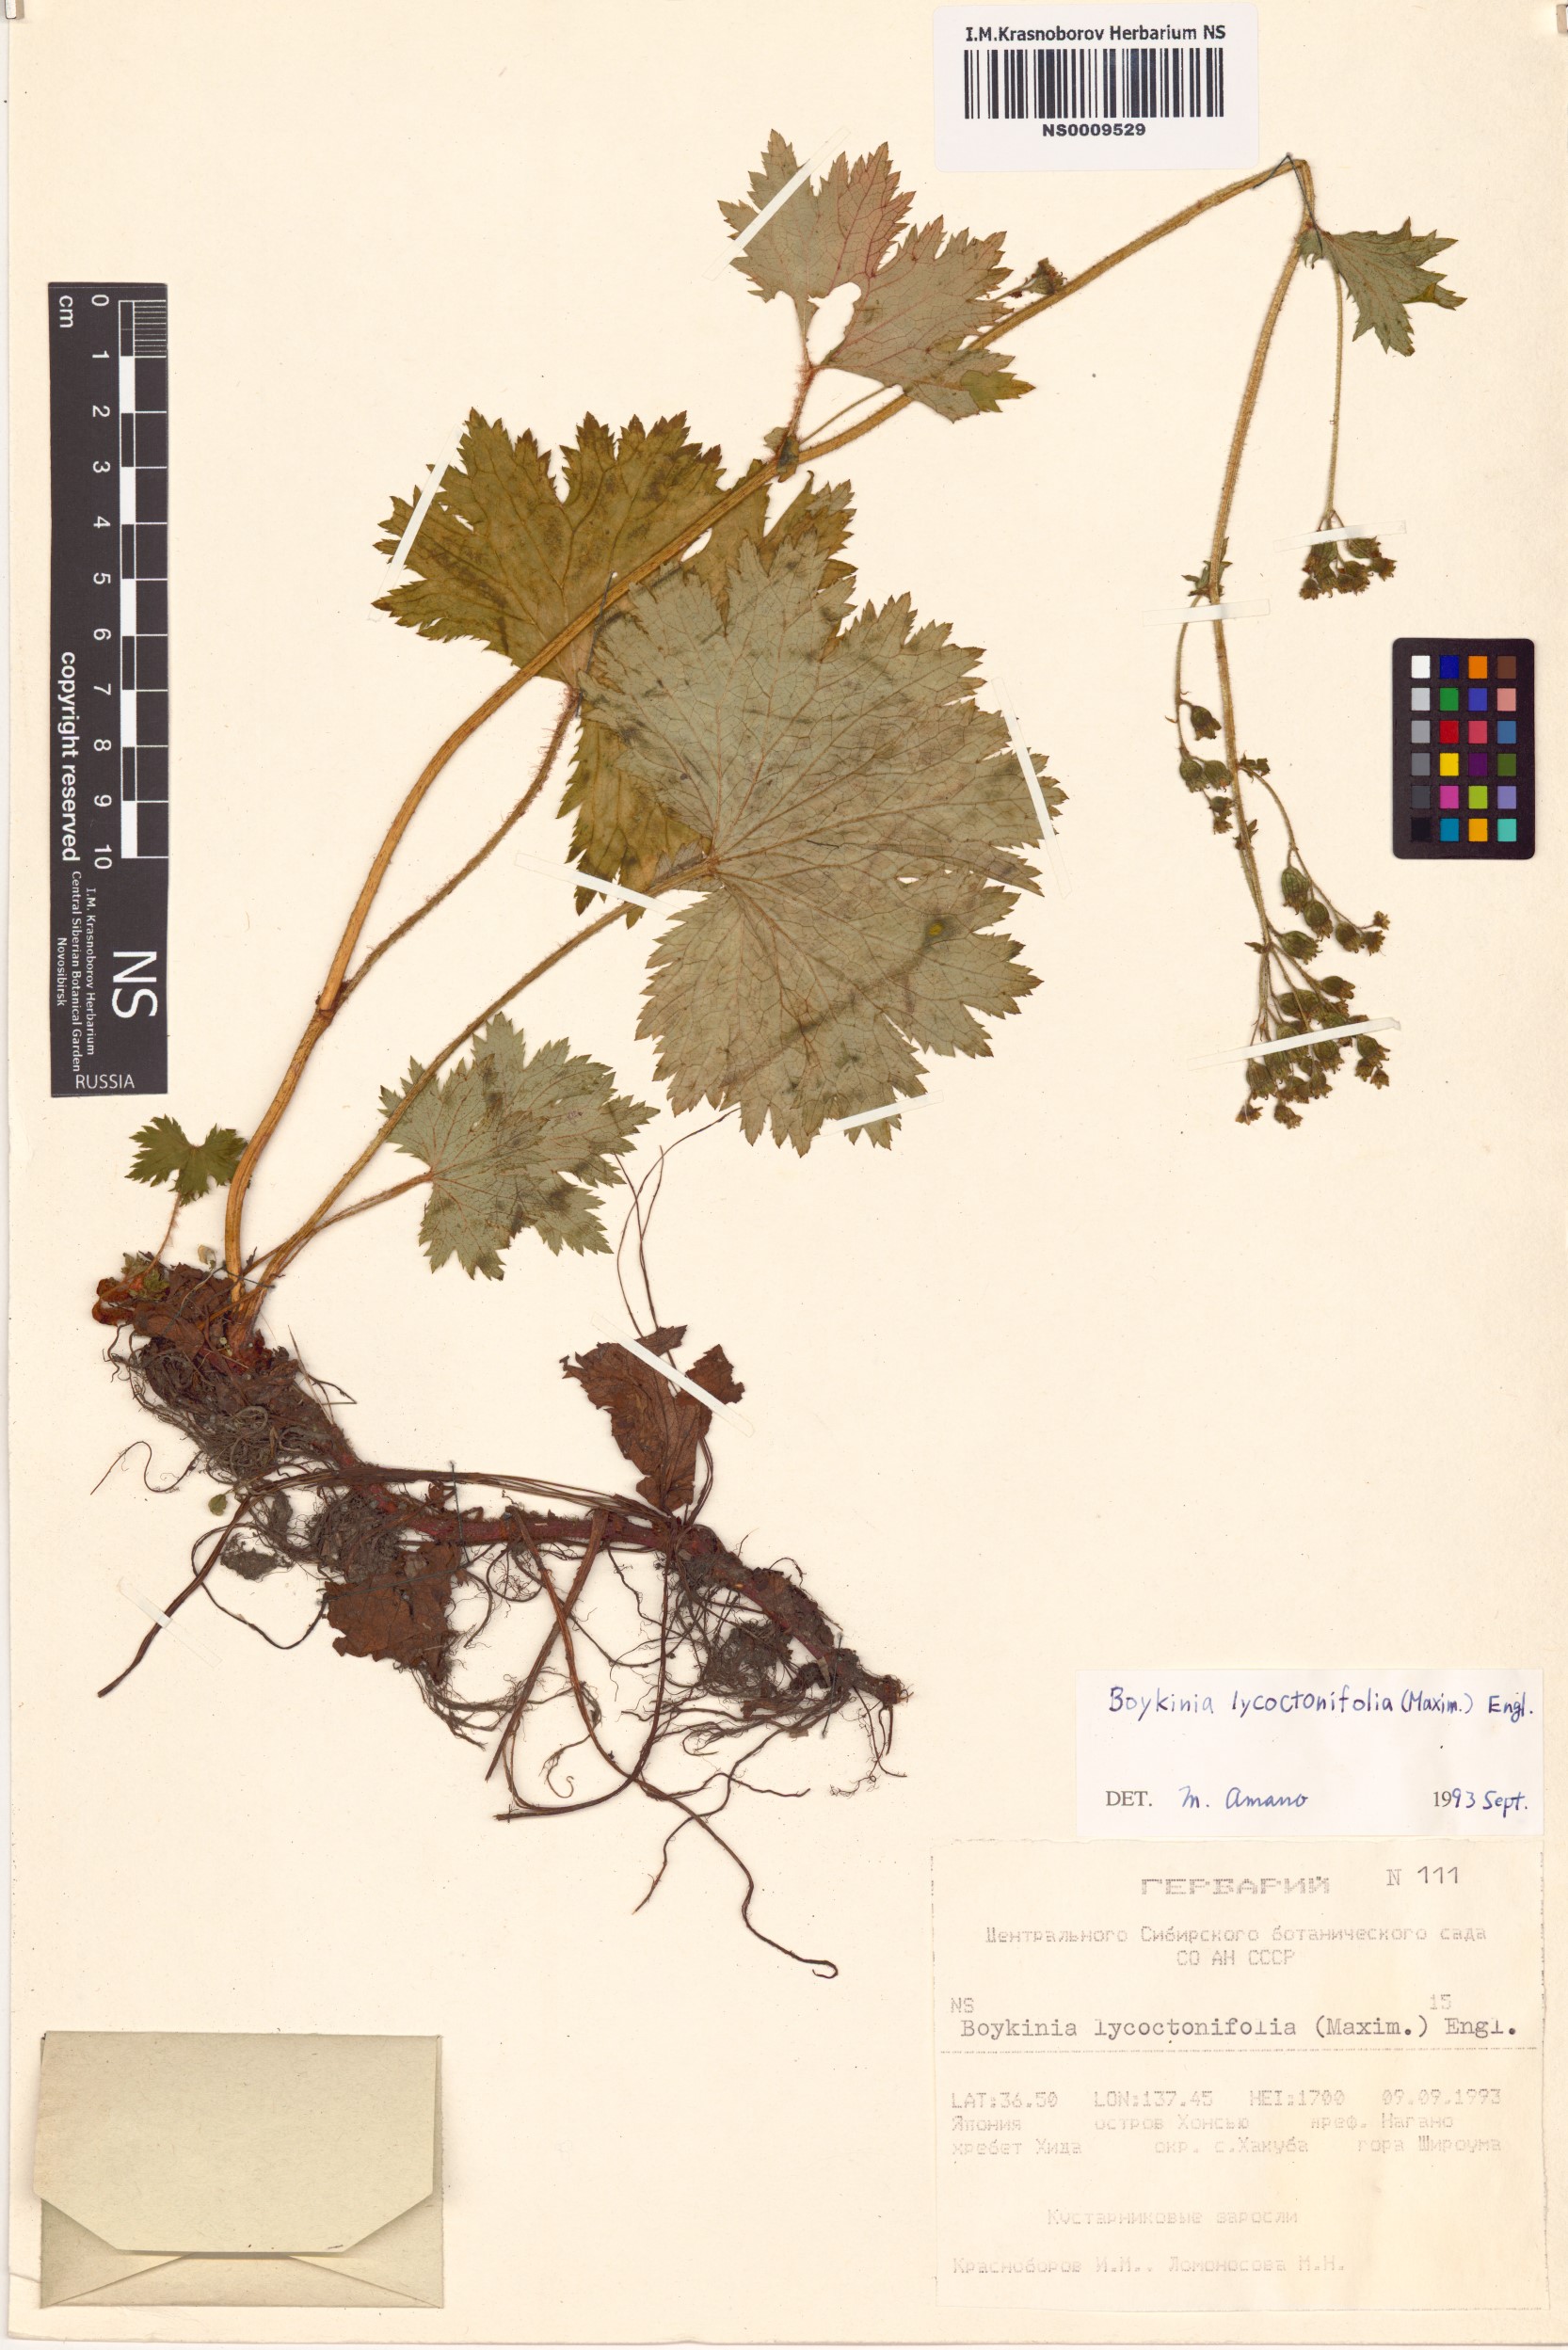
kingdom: Plantae
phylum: Tracheophyta
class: Magnoliopsida
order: Saxifragales
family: Saxifragaceae
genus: Boykinia
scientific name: Boykinia lycoctonifolia
